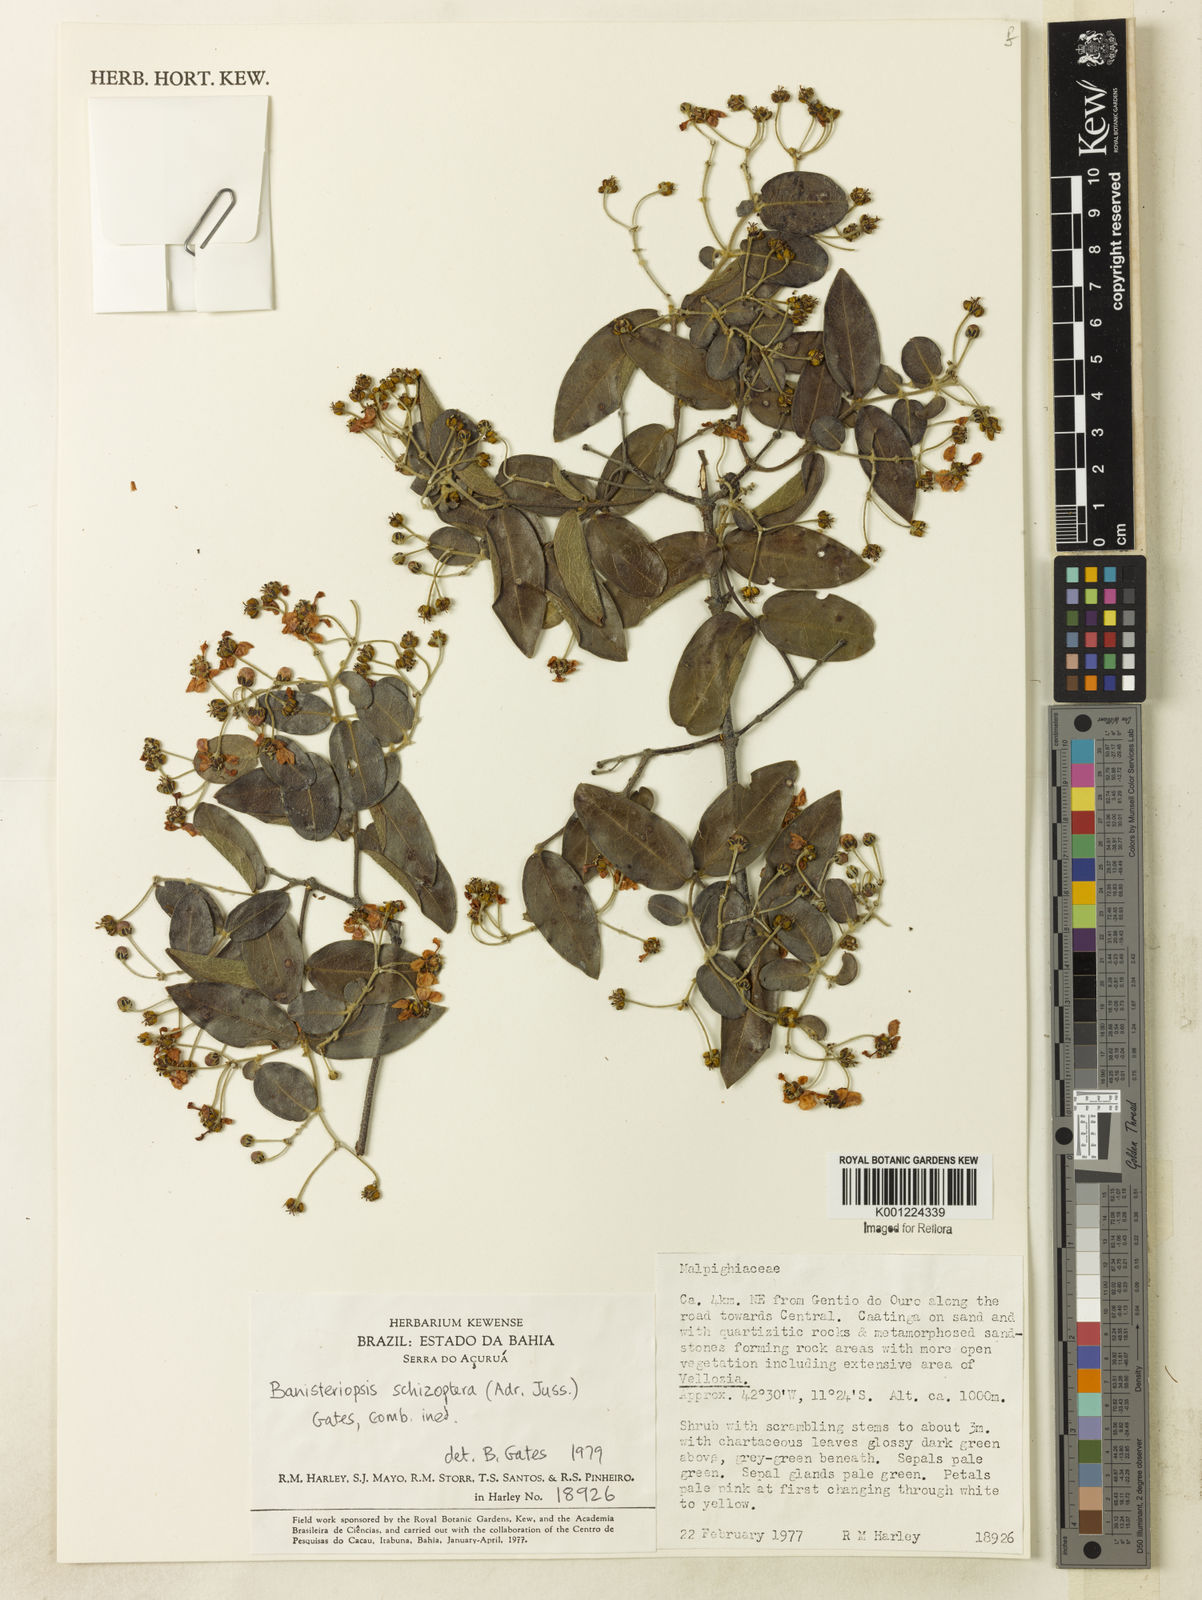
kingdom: Plantae
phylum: Tracheophyta
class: Magnoliopsida
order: Malpighiales
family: Malpighiaceae
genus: Banisteriopsis
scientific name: Banisteriopsis schizoptera
